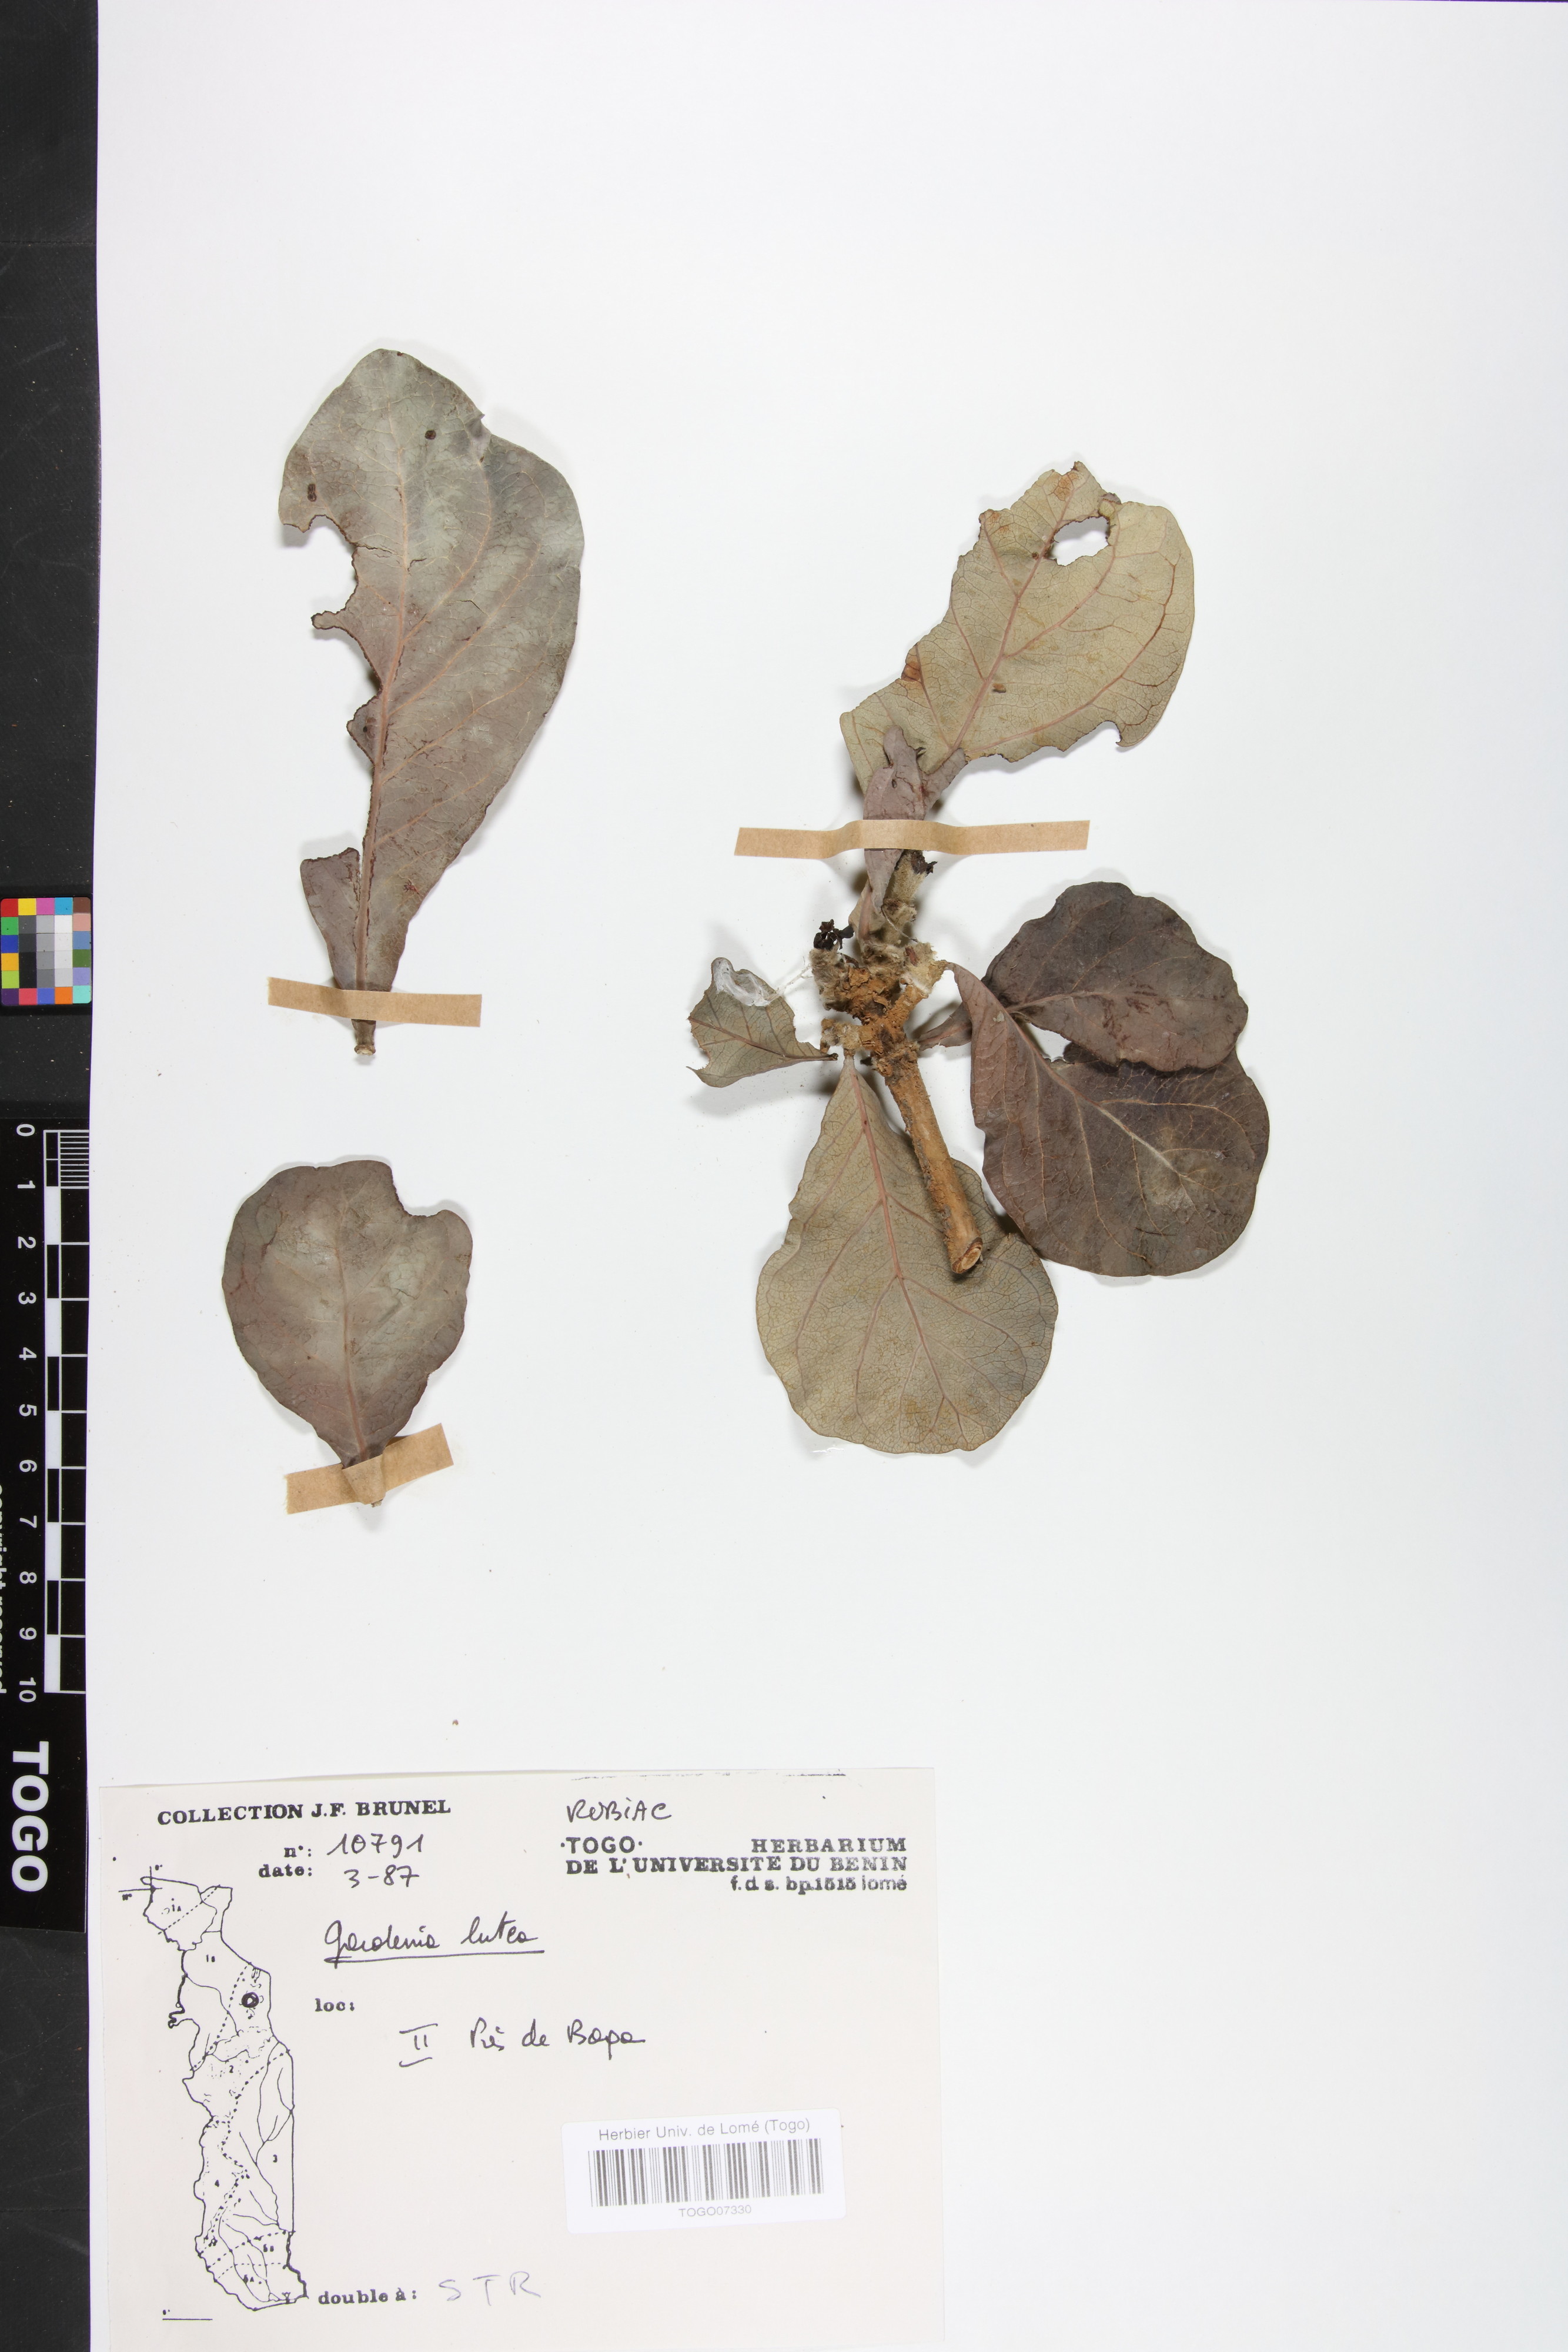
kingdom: Plantae
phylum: Tracheophyta
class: Magnoliopsida
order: Gentianales
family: Rubiaceae
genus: Gardenia
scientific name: Gardenia ternifolia
